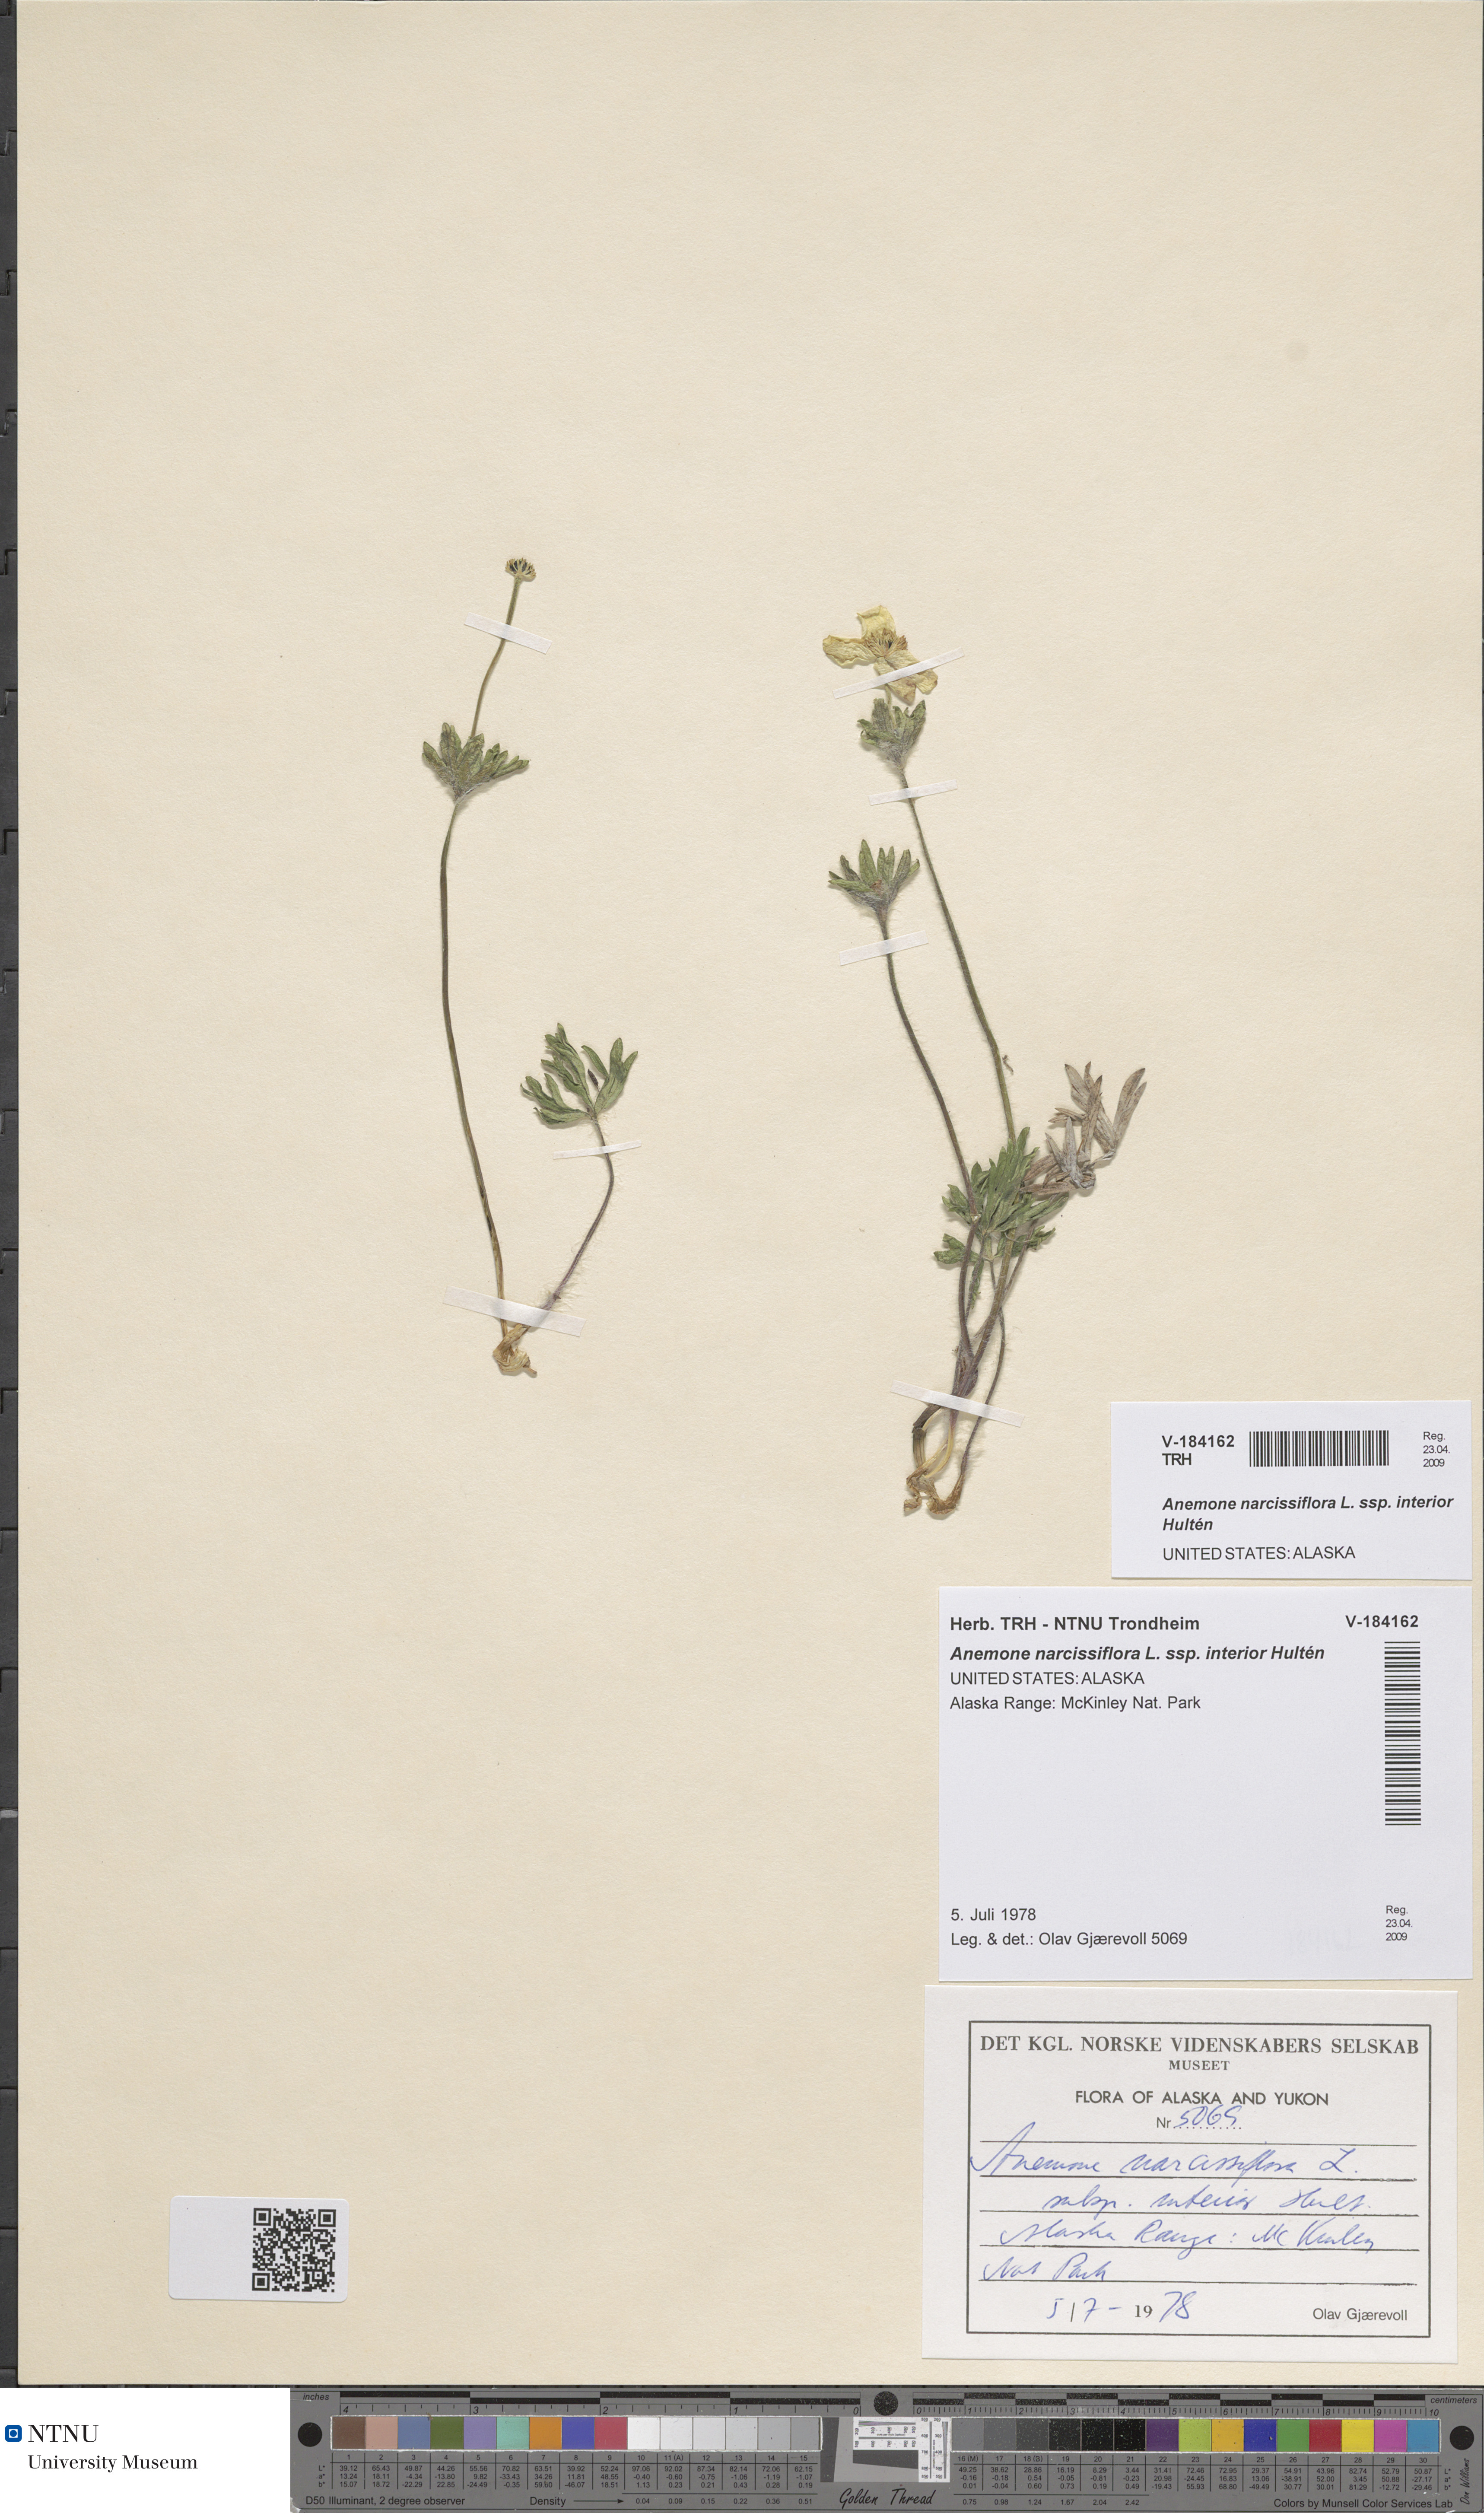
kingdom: Plantae
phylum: Tracheophyta
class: Magnoliopsida
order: Ranunculales
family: Ranunculaceae
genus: Anemonastrum
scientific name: Anemonastrum narcissiflorum
